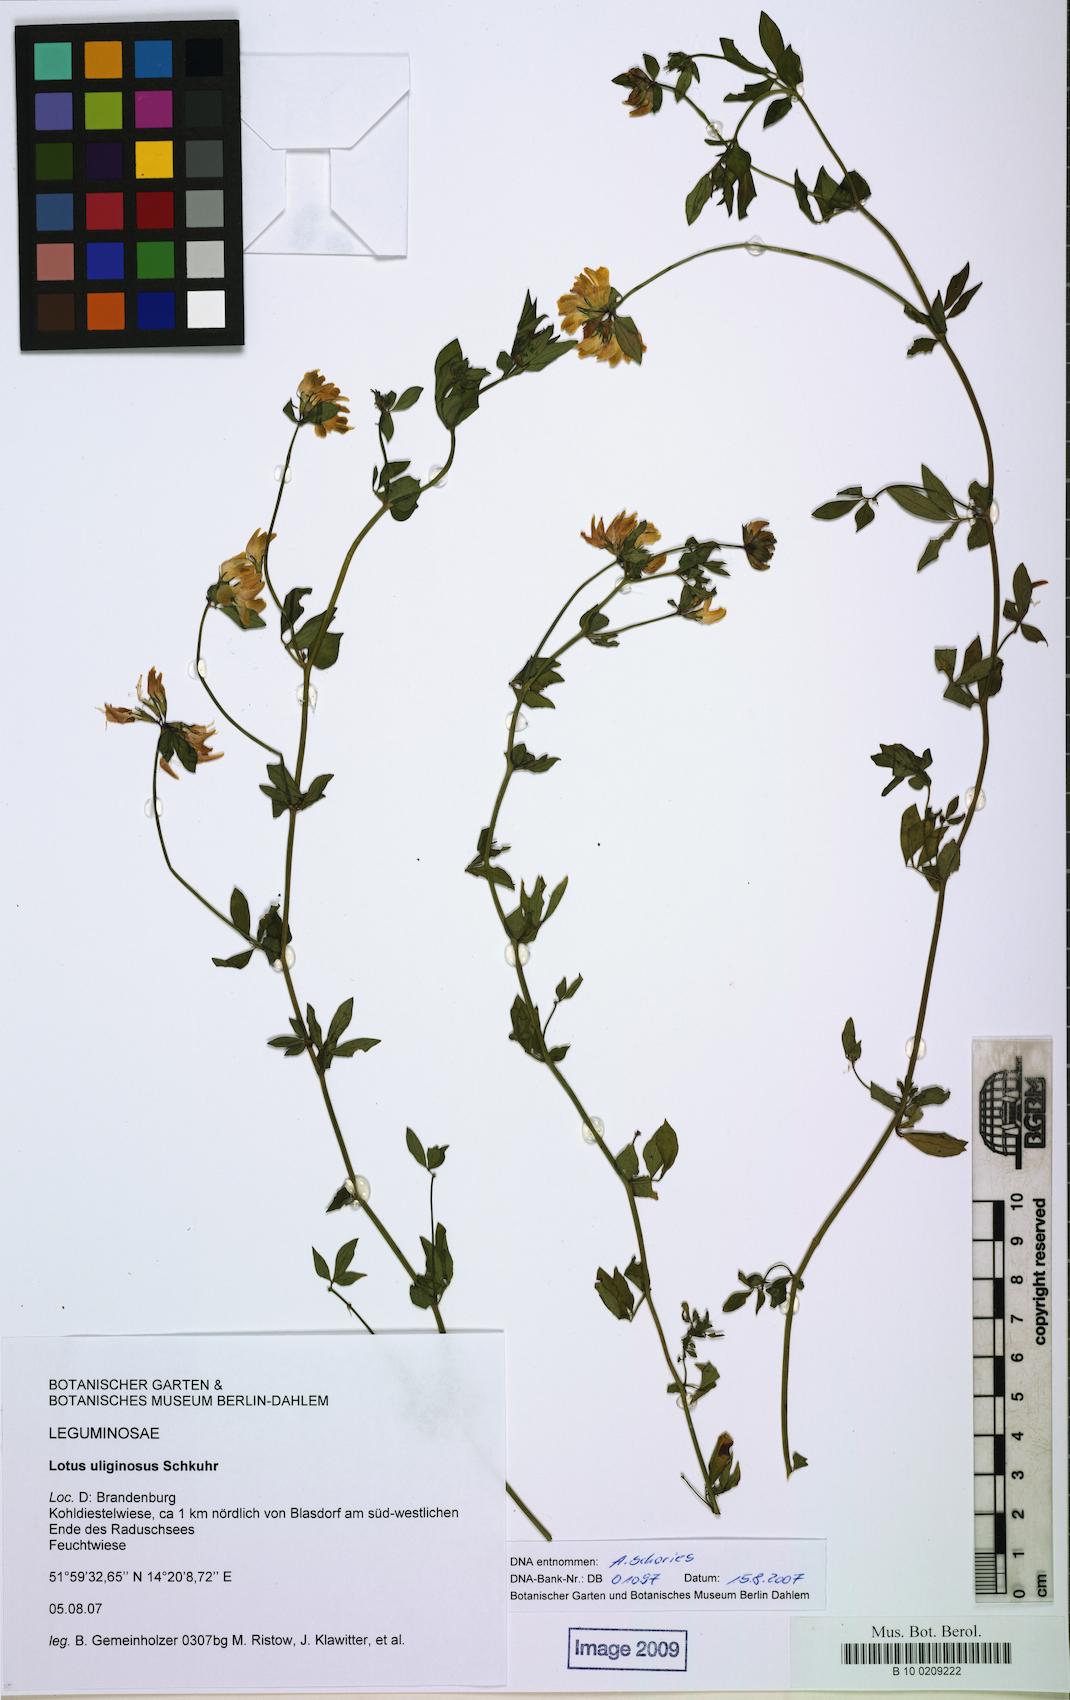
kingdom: Plantae
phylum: Tracheophyta
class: Magnoliopsida
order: Fabales
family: Fabaceae
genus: Lotus
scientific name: Lotus pedunculatus
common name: Greater birdsfoot-trefoil
